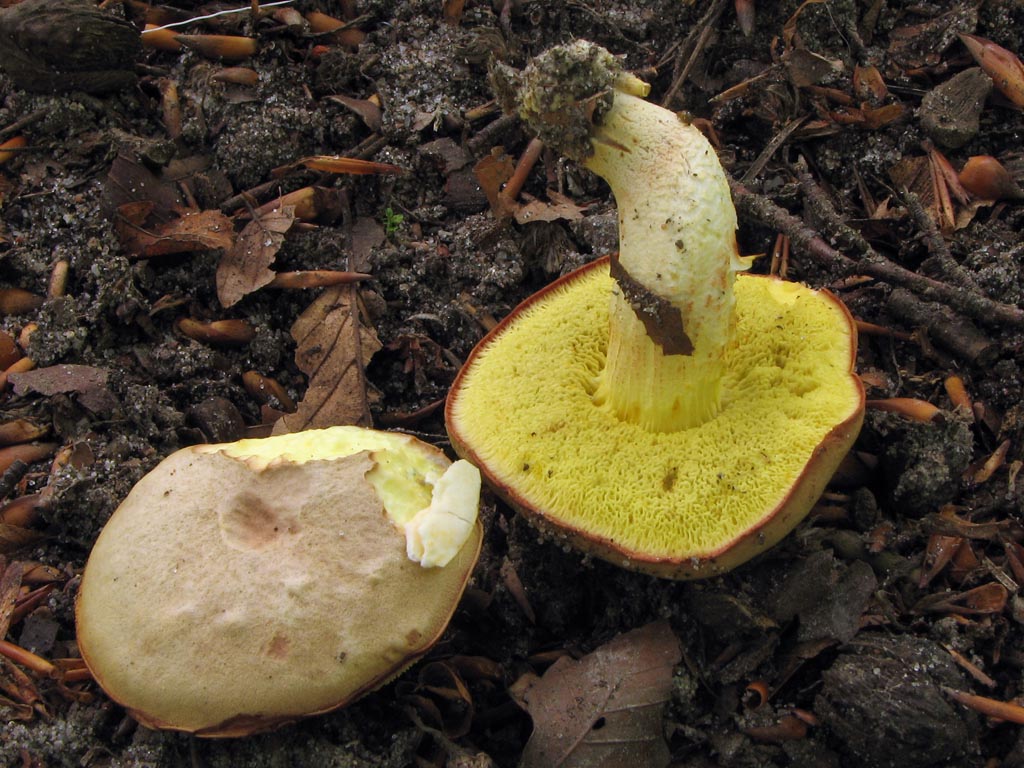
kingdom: Fungi
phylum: Basidiomycota
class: Agaricomycetes
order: Boletales
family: Boletaceae
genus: Xerocomus
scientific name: Xerocomus subtomentosus
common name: filtet rørhat
